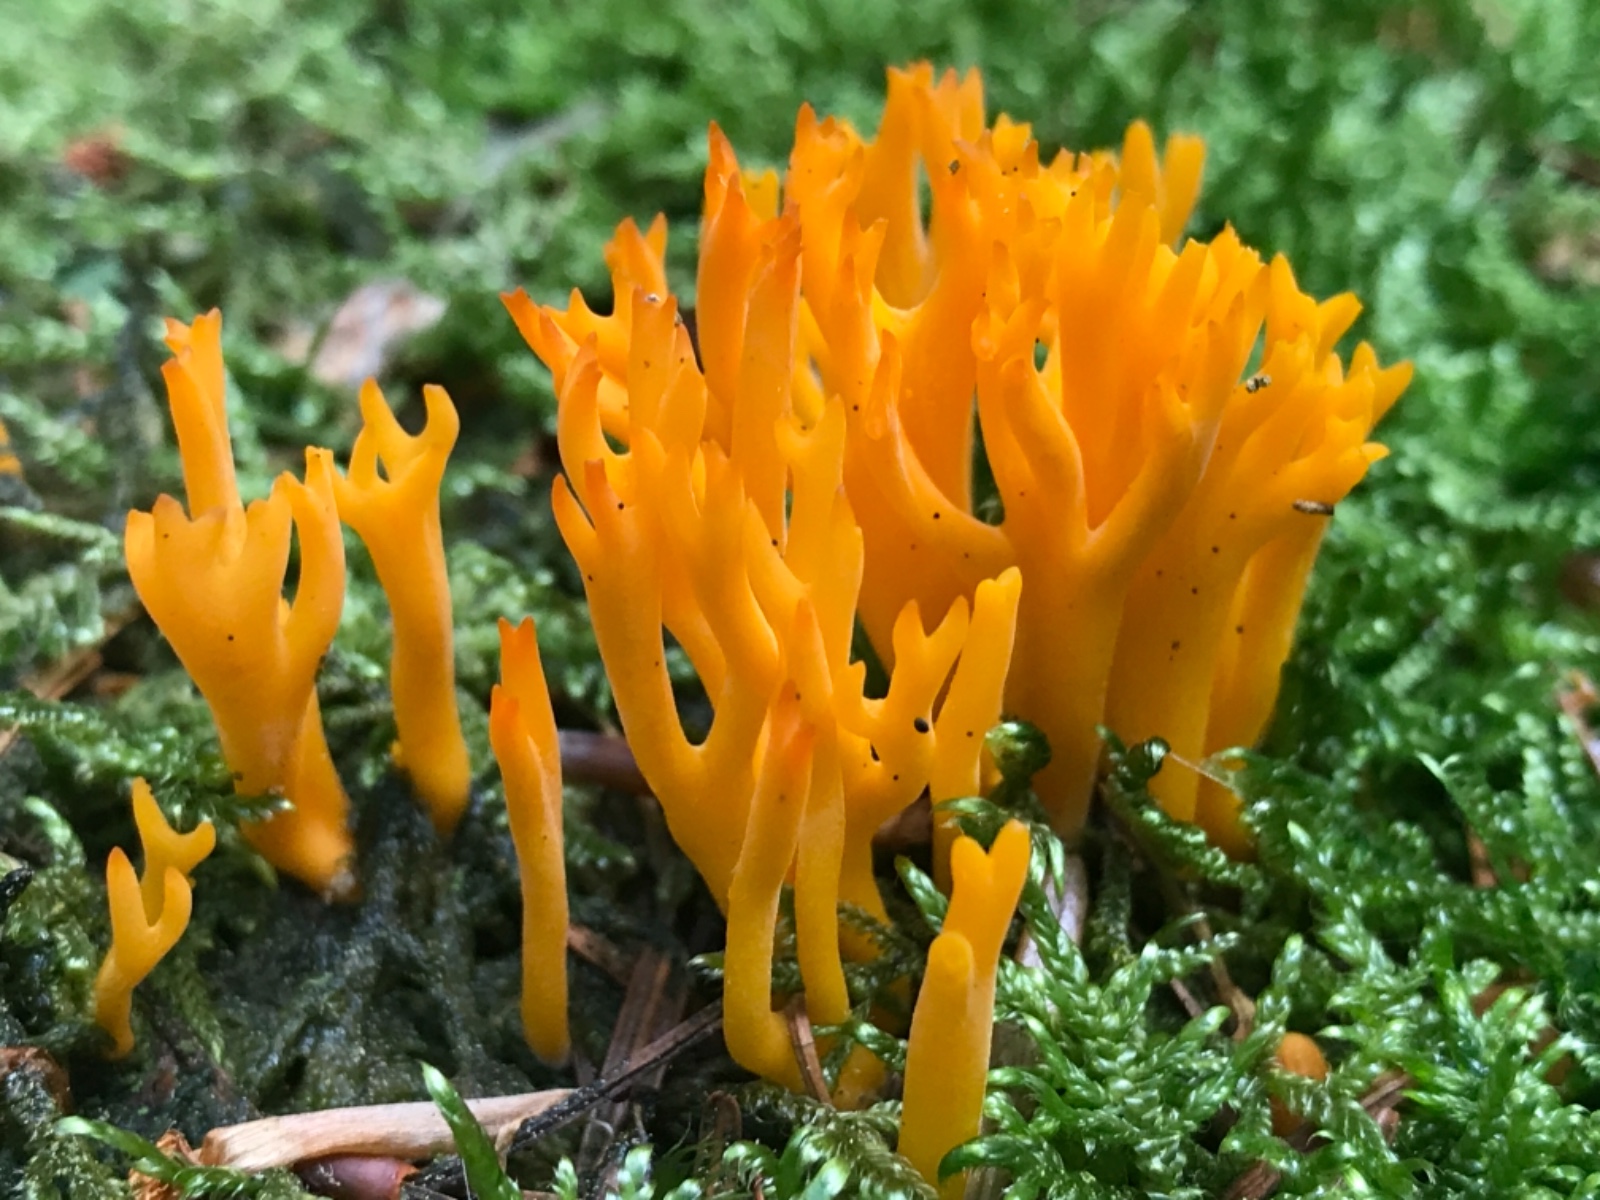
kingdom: Fungi
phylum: Basidiomycota
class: Dacrymycetes
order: Dacrymycetales
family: Dacrymycetaceae
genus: Calocera
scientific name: Calocera viscosa
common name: almindelig guldgaffel
